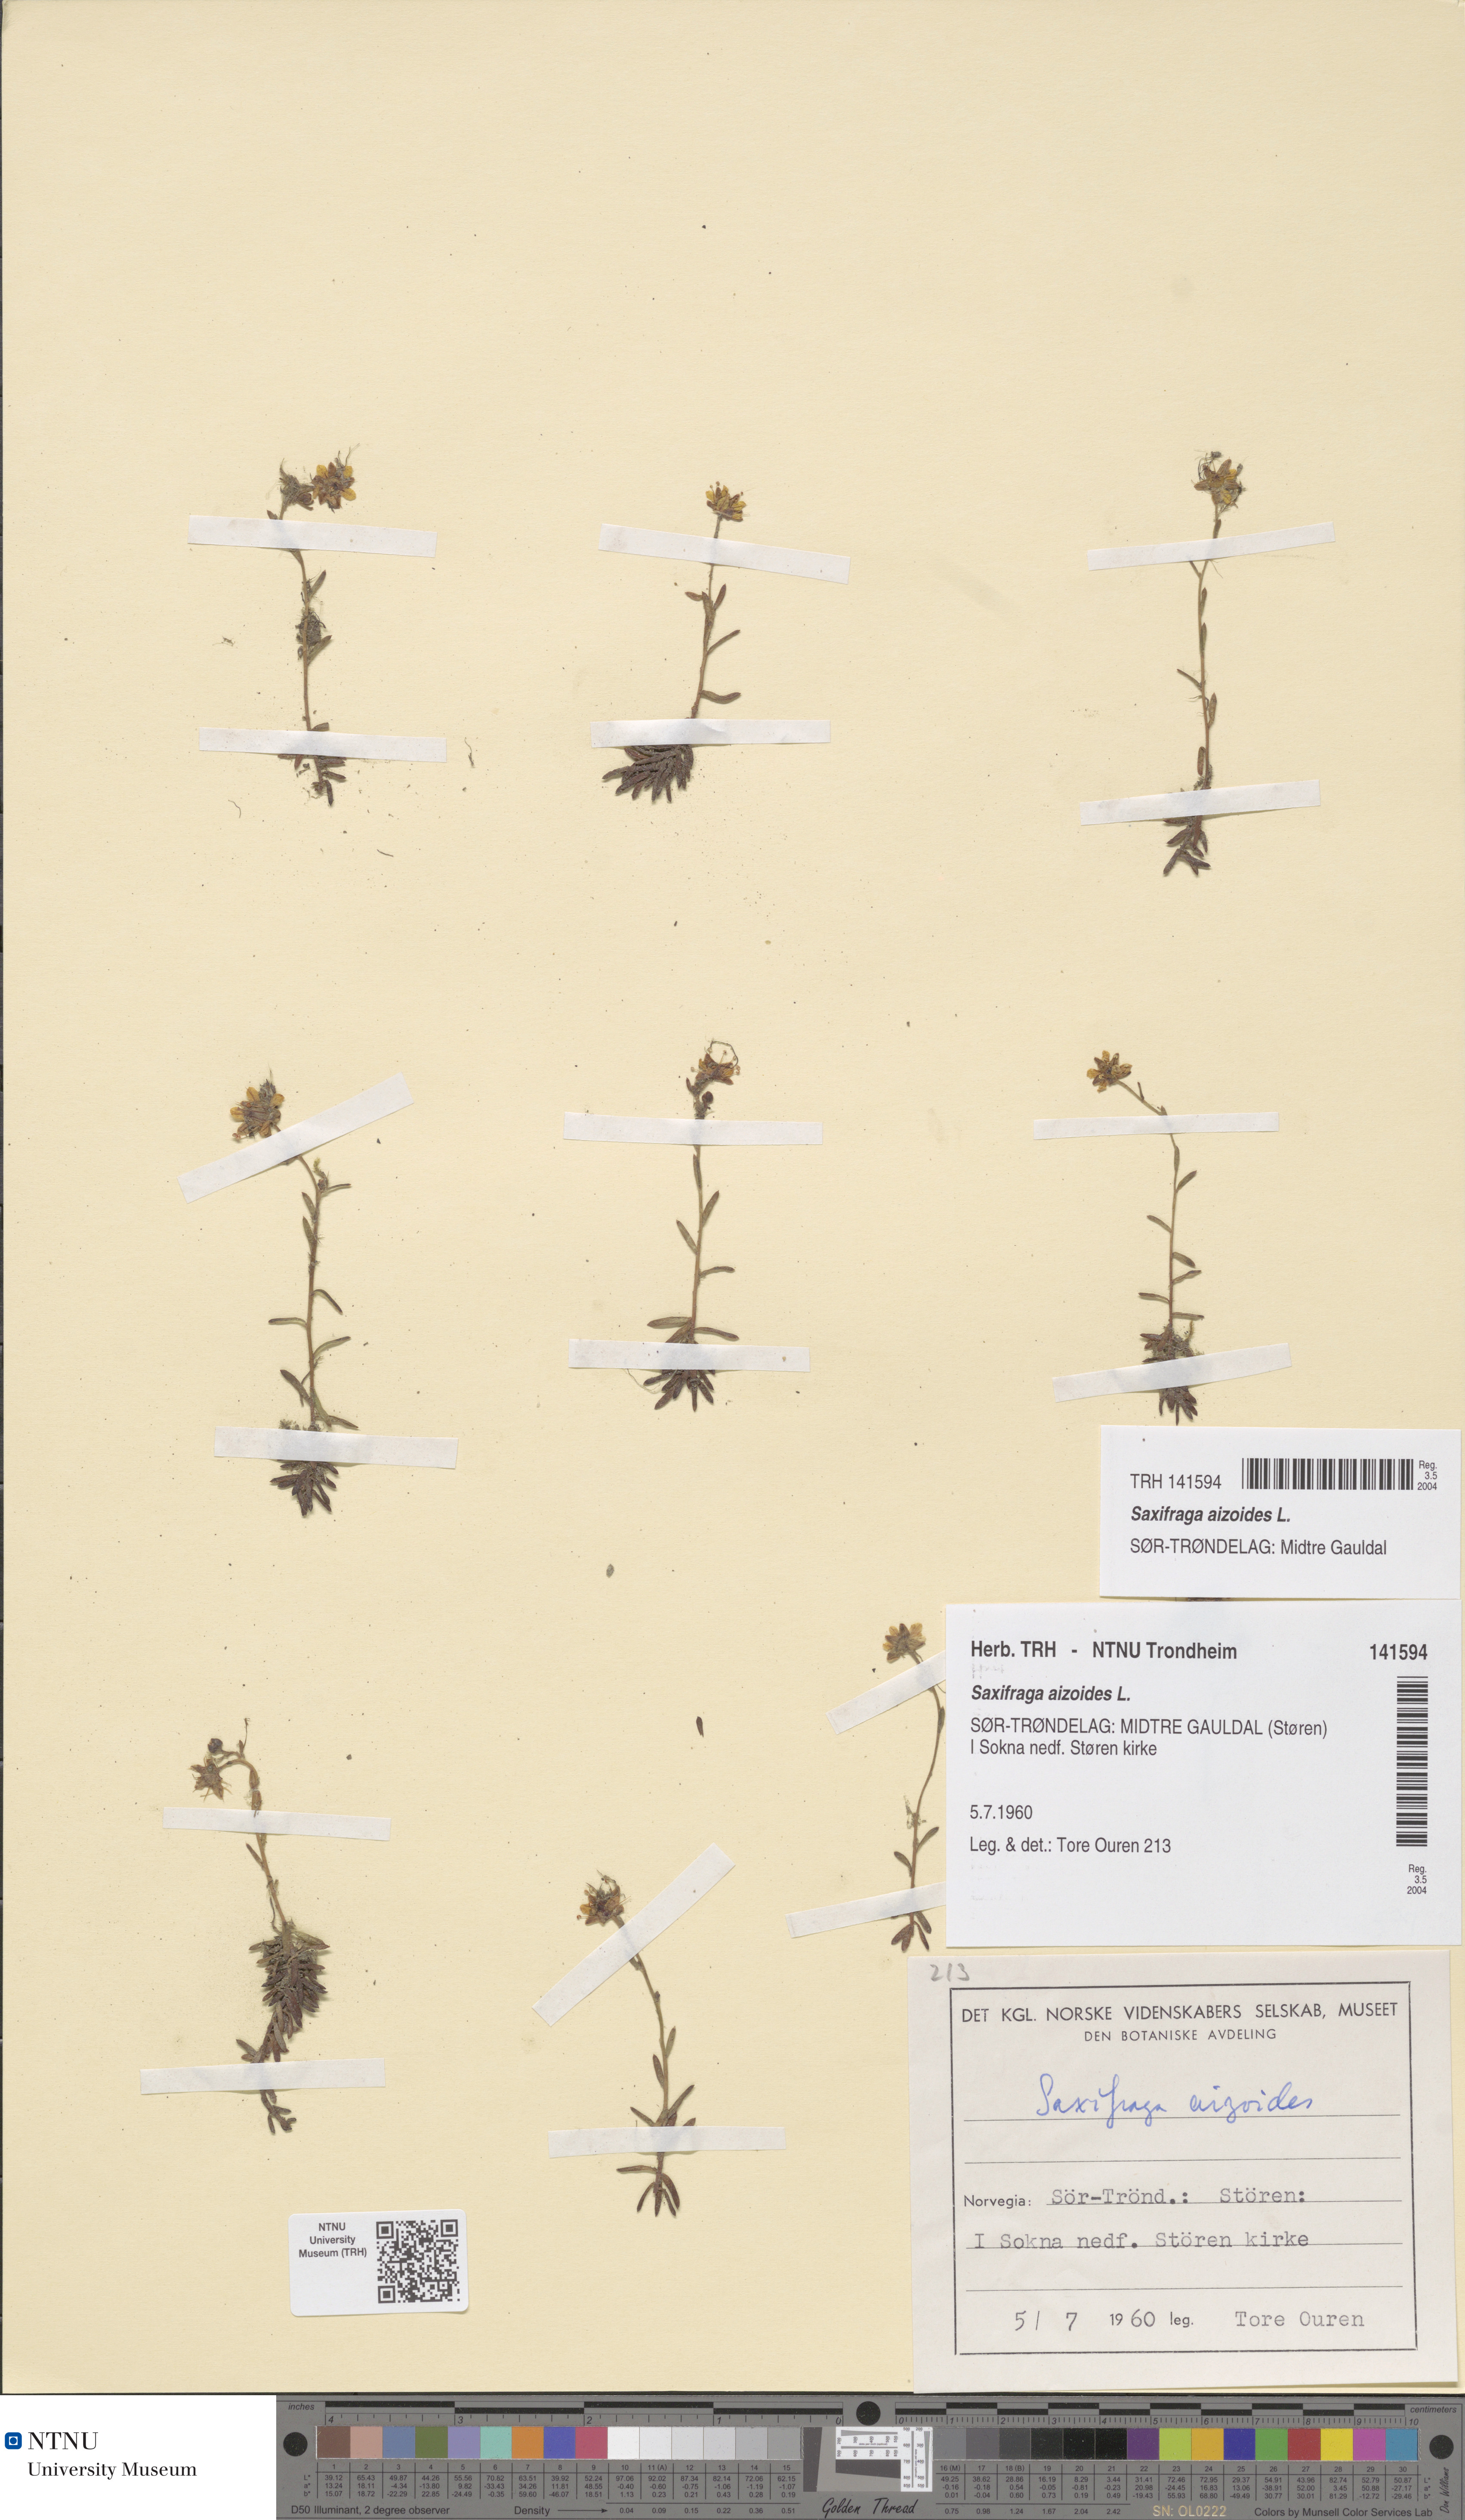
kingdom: Plantae
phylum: Tracheophyta
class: Magnoliopsida
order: Saxifragales
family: Saxifragaceae
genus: Saxifraga
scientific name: Saxifraga aizoides
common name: Yellow mountain saxifrage
